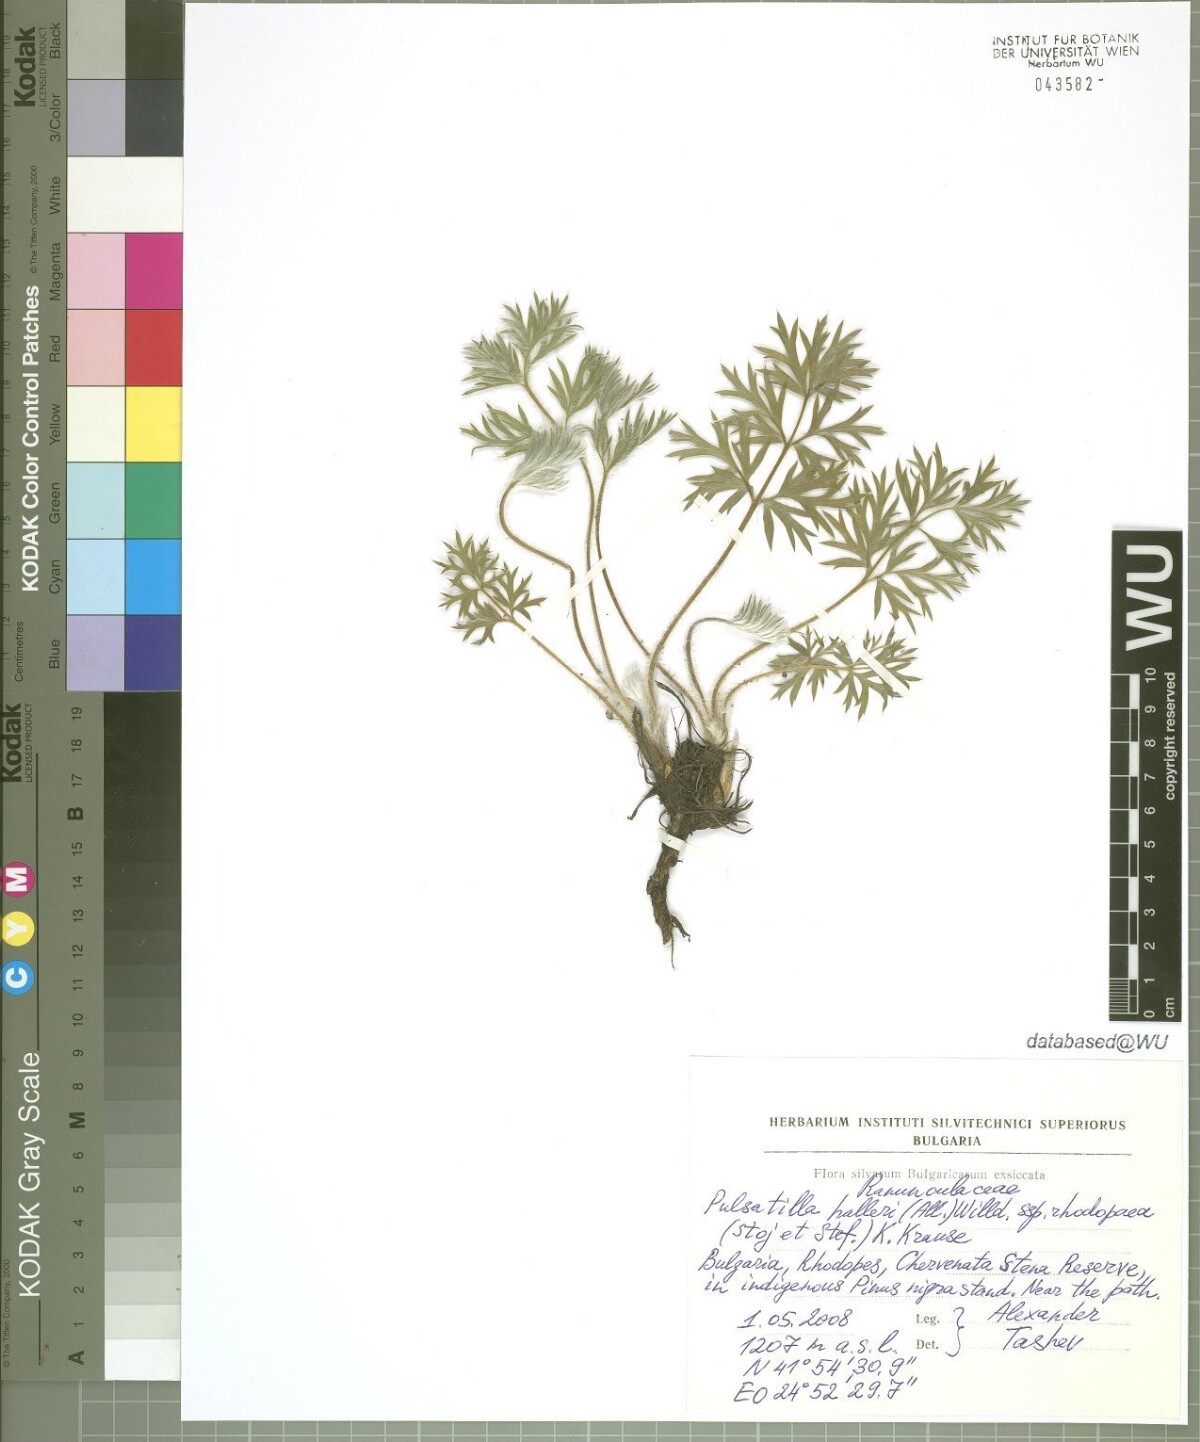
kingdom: Plantae
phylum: Tracheophyta
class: Magnoliopsida
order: Ranunculales
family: Ranunculaceae
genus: Pulsatilla
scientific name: Pulsatilla halleri
